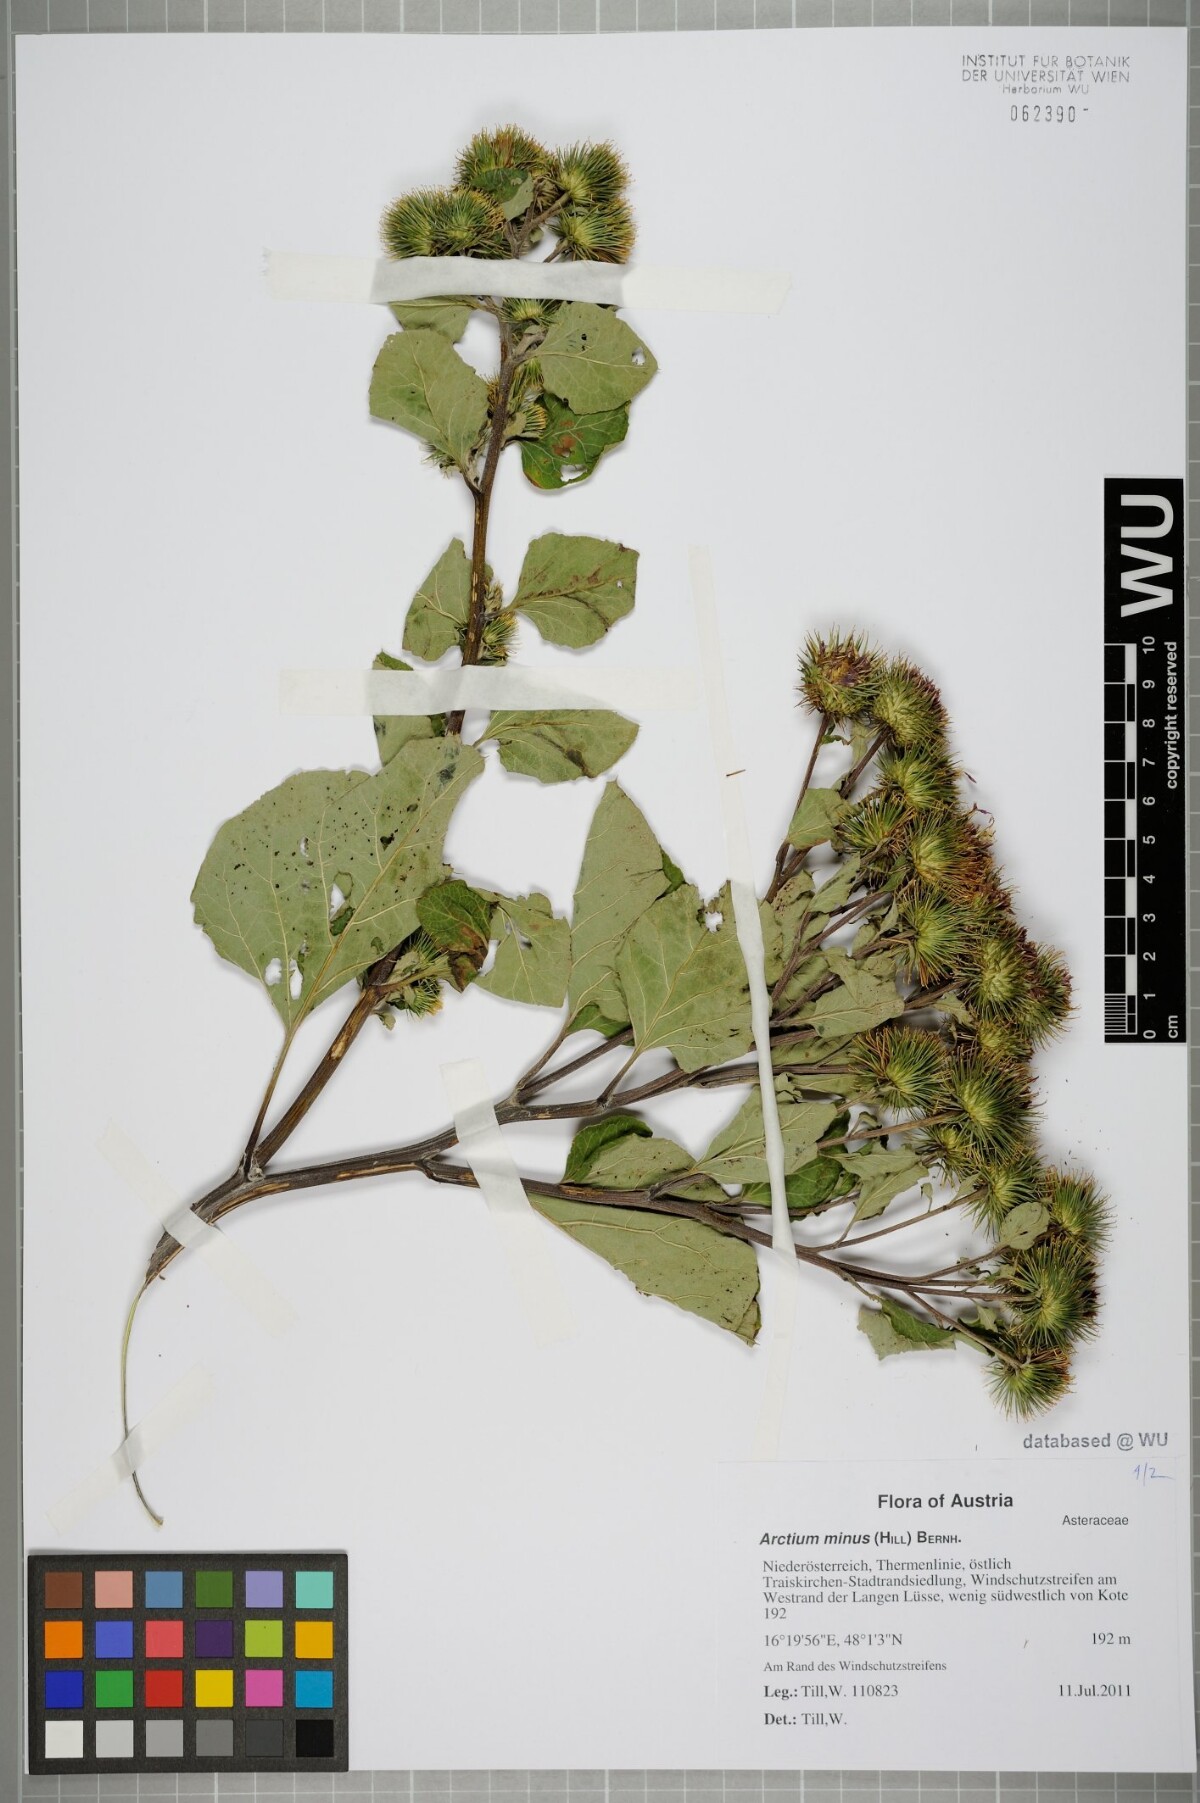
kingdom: Plantae
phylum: Tracheophyta
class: Magnoliopsida
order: Asterales
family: Asteraceae
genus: Arctium
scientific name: Arctium minus
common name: Lesser burdock
